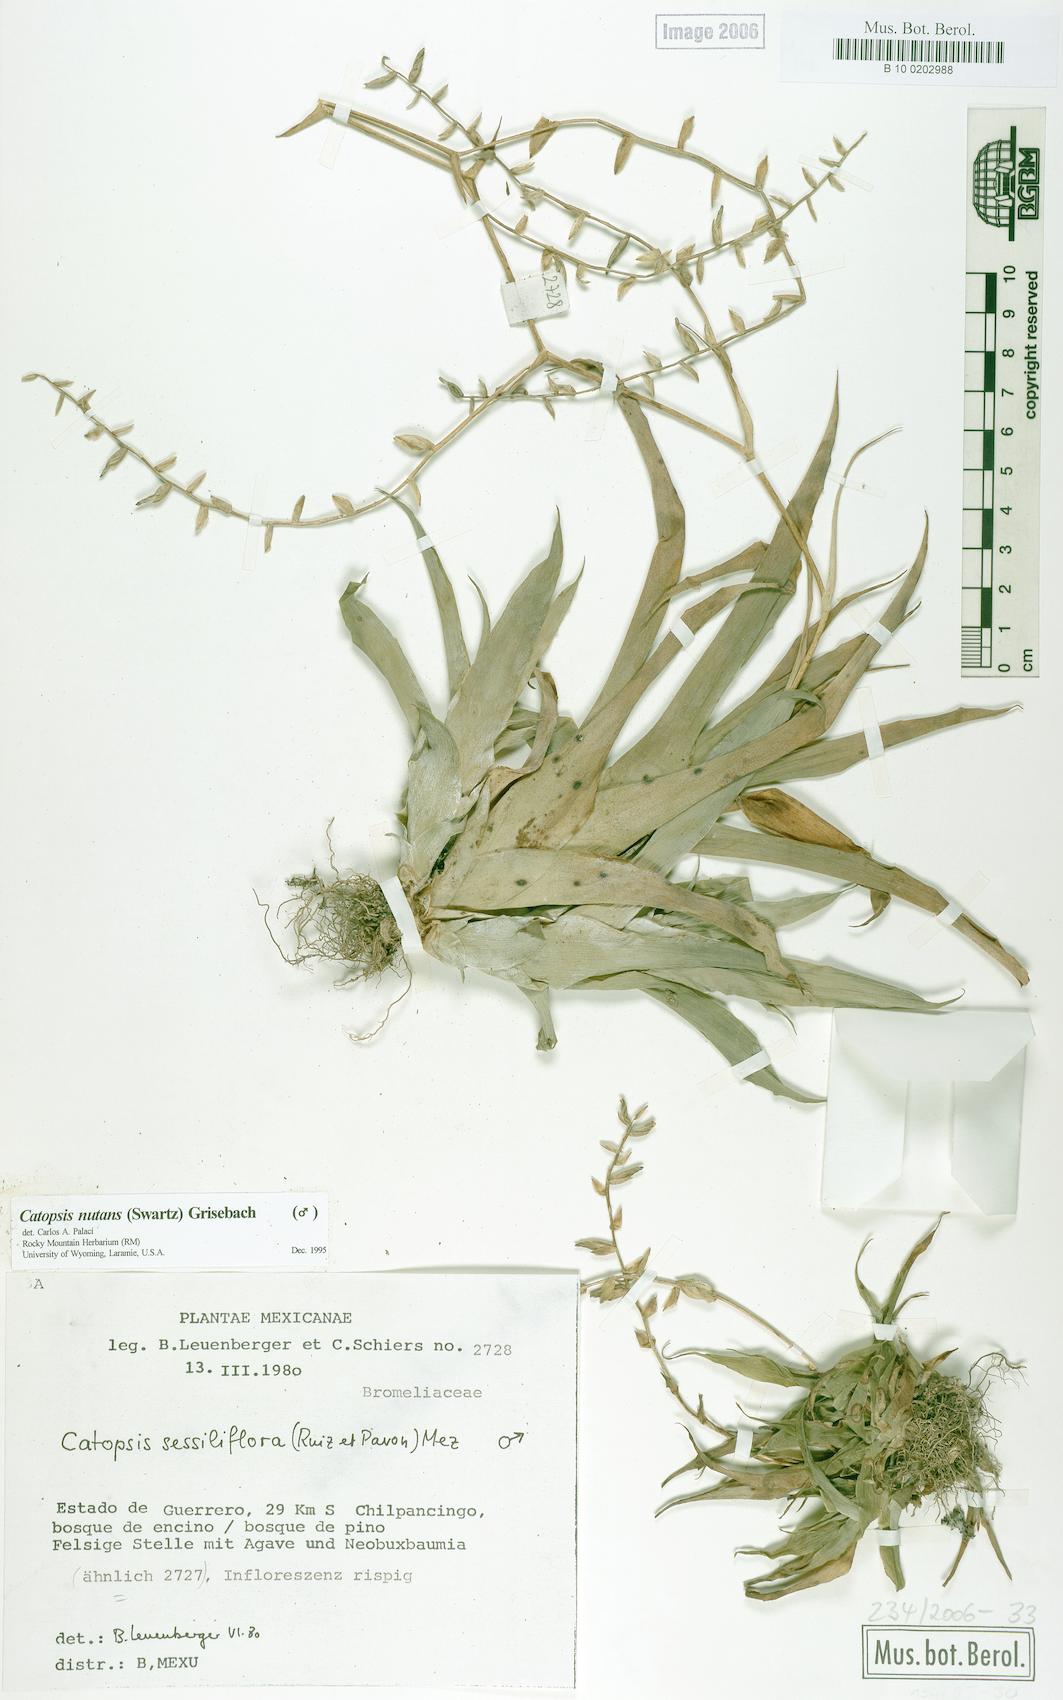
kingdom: Plantae
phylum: Tracheophyta
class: Liliopsida
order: Poales
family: Bromeliaceae
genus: Catopsis
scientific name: Catopsis nutans
